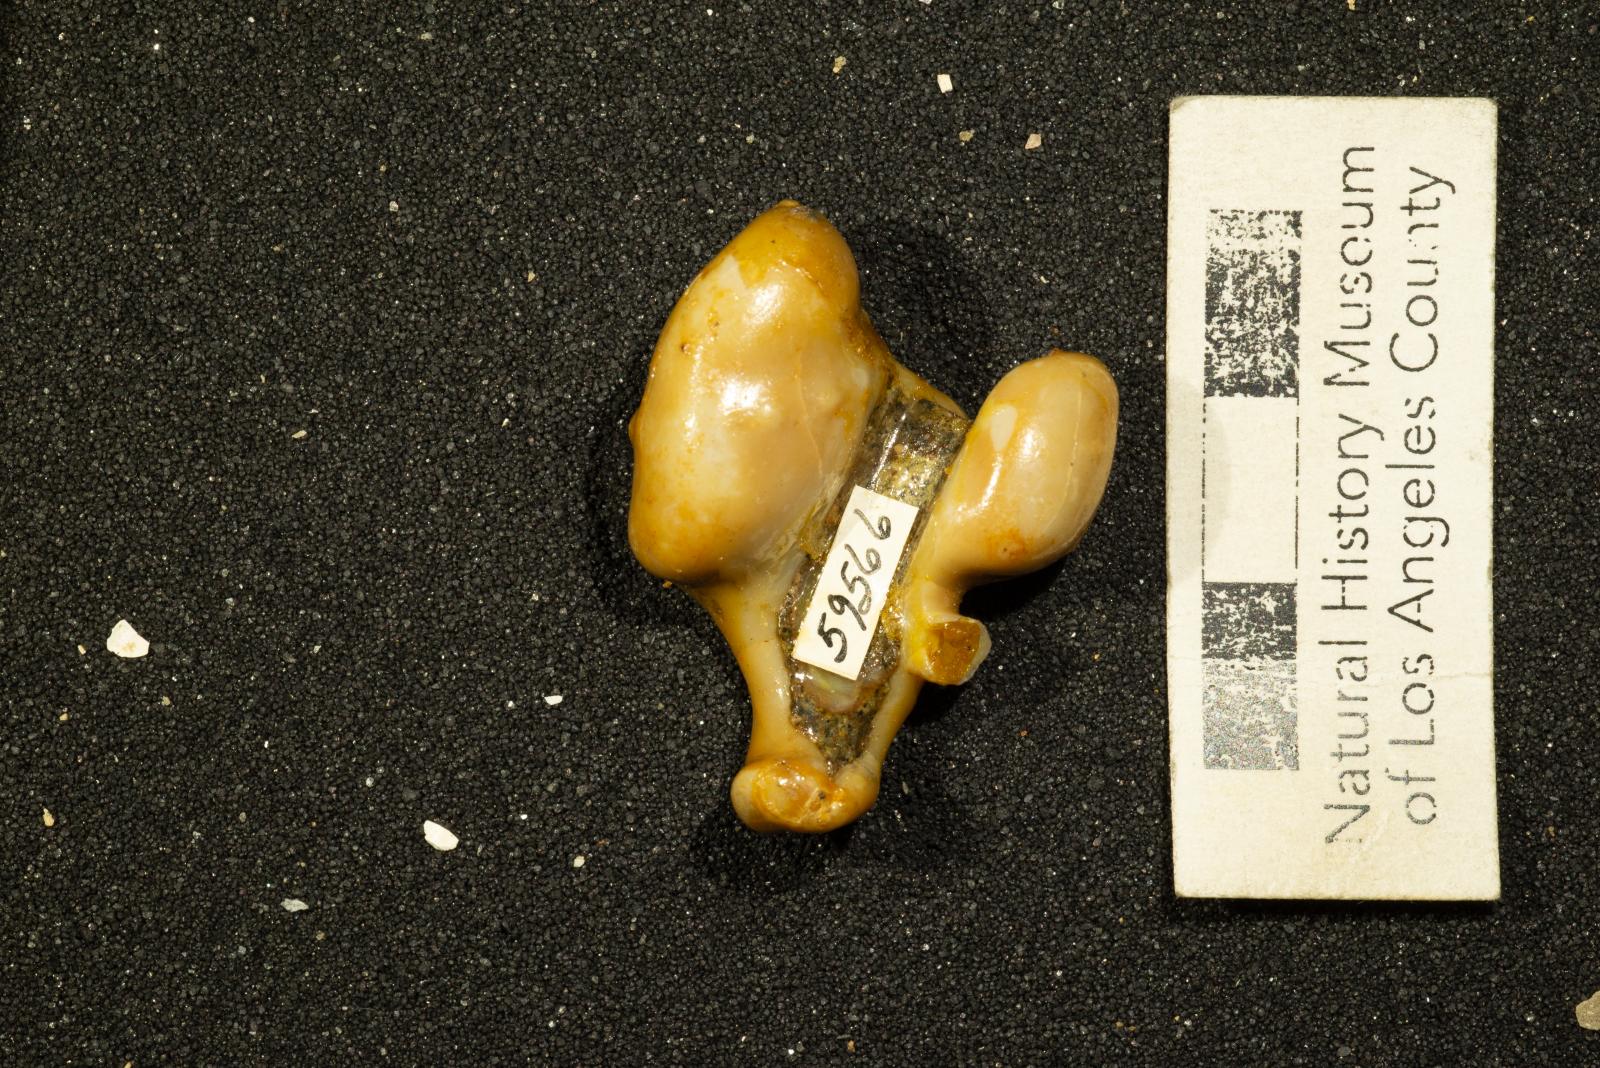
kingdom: Animalia
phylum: Mollusca
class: Gastropoda
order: Littorinimorpha
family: Aporrhaidae
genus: Pyktes
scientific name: Pyktes aspris
